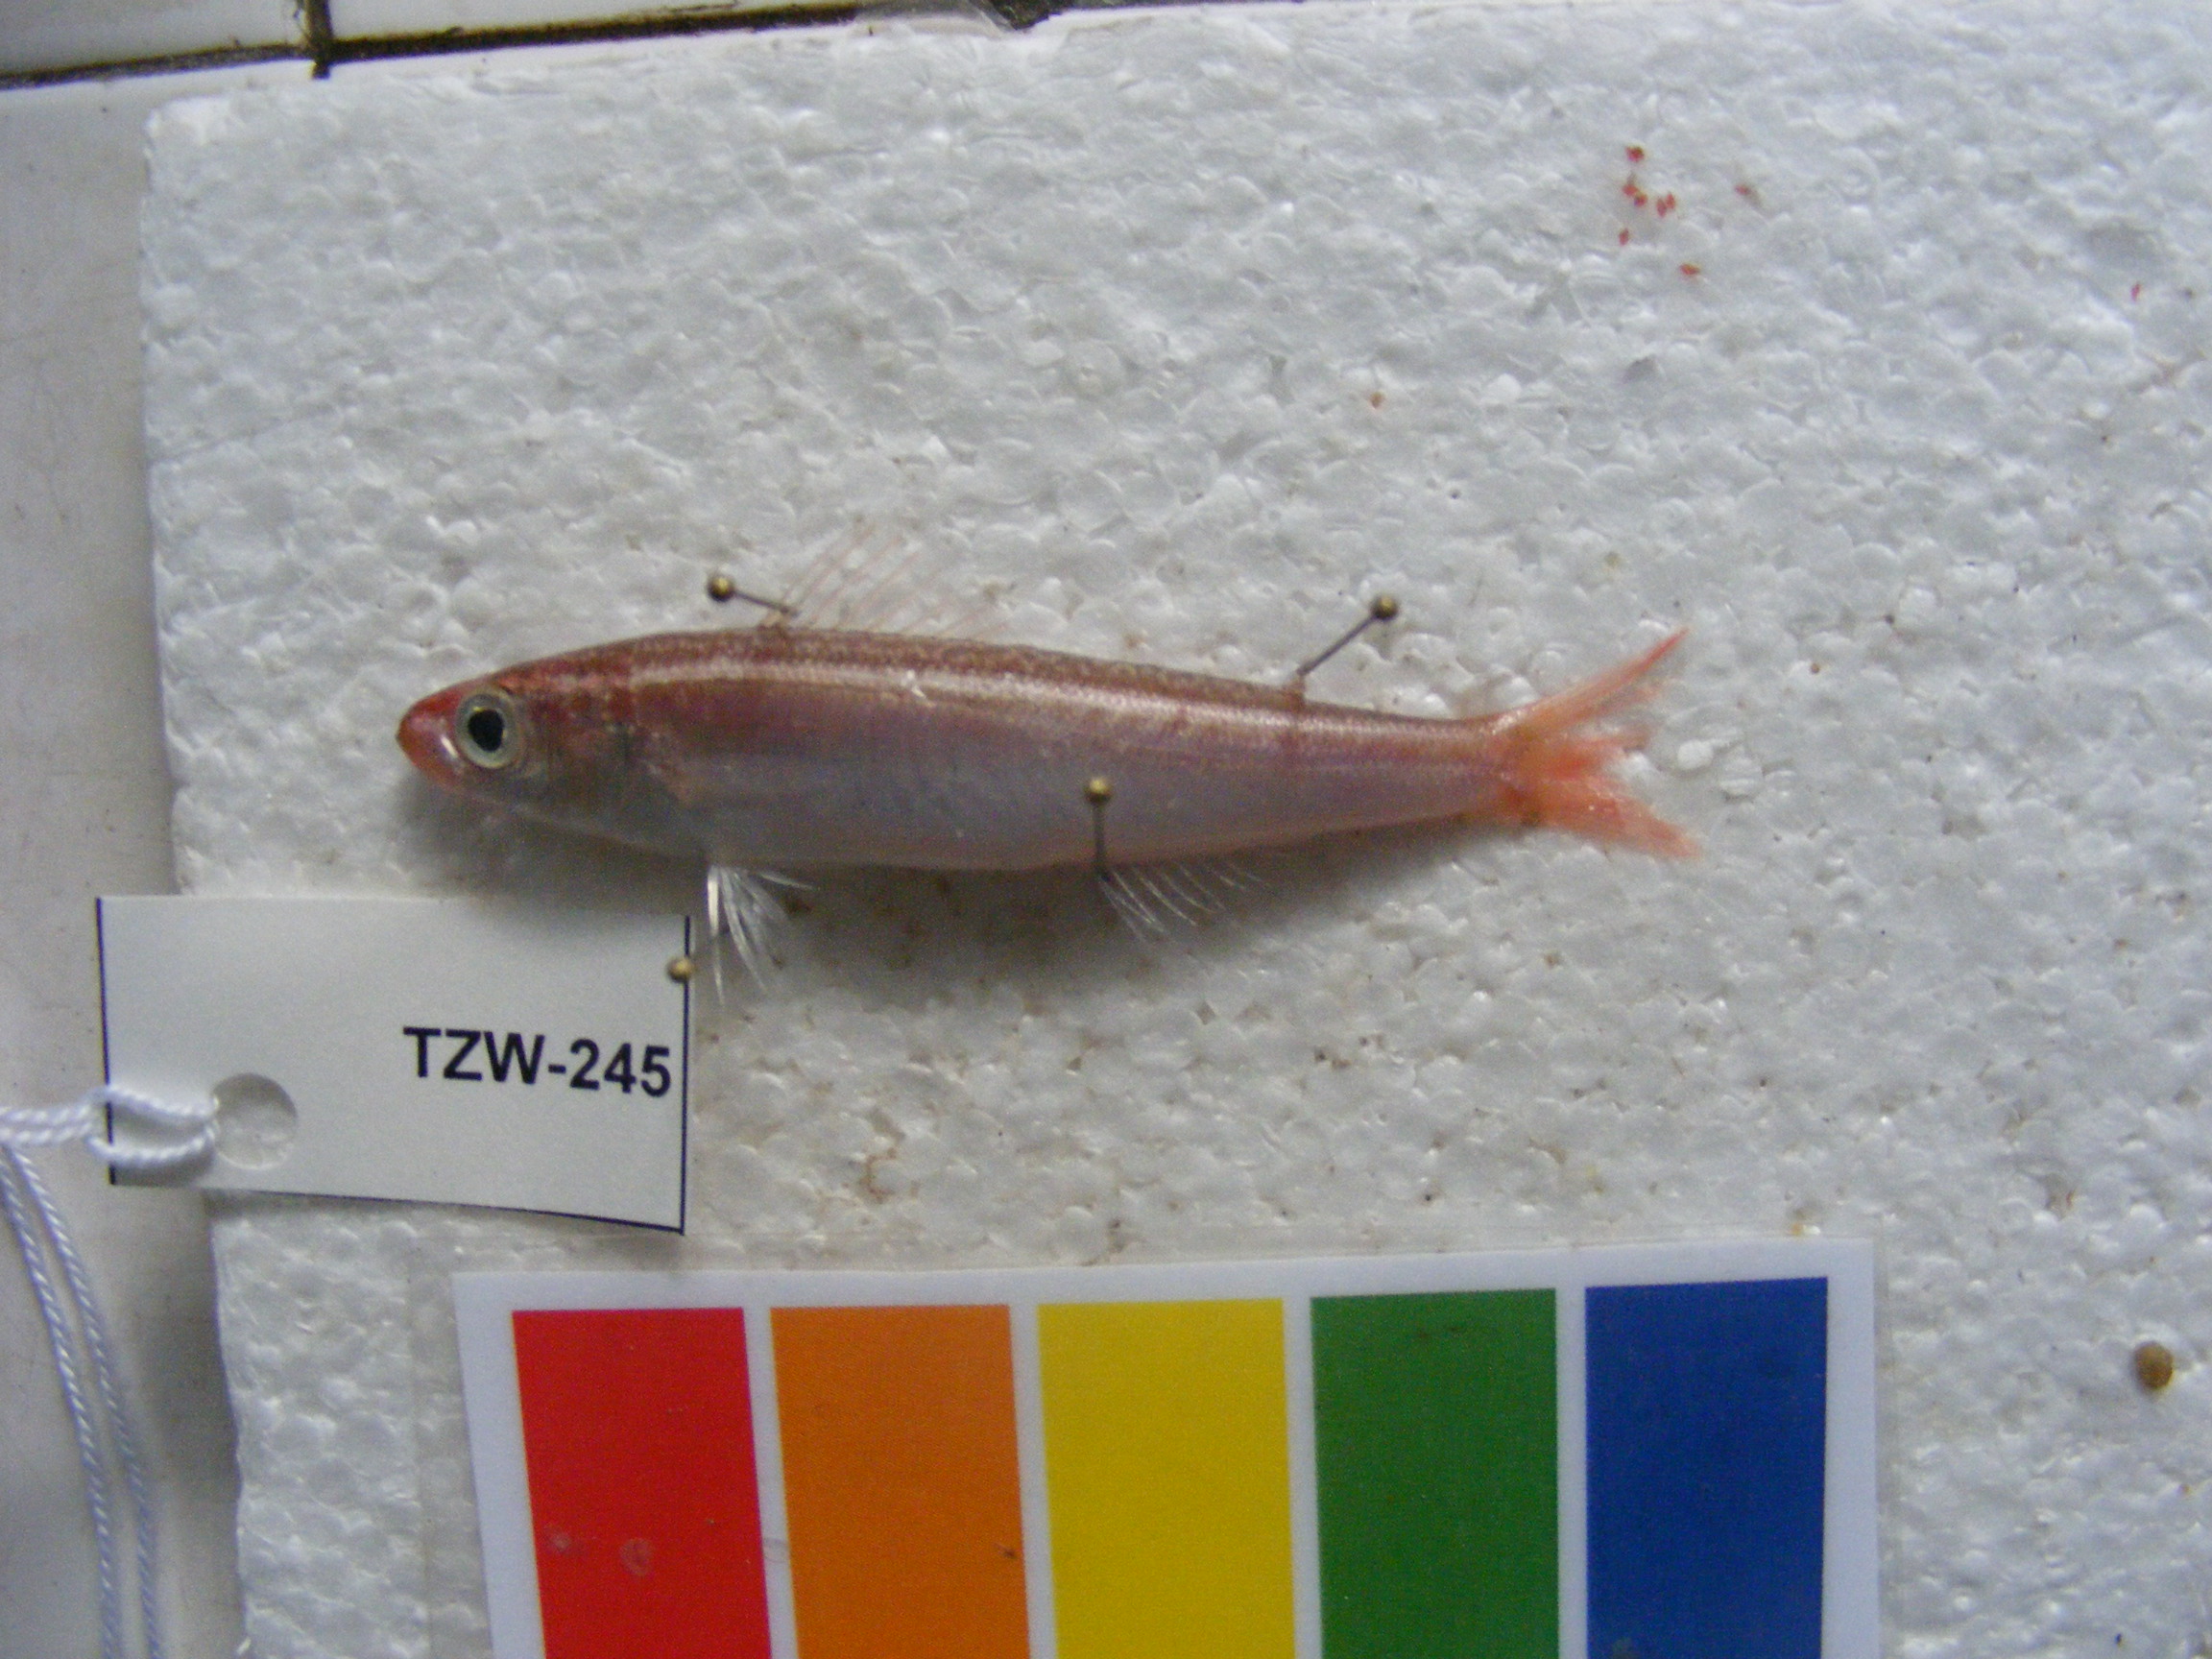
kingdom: Animalia
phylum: Chordata
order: Perciformes
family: Emmelichthyidae
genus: Emmelichthys
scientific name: Emmelichthys nitidus
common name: Cape bonnetmouth
